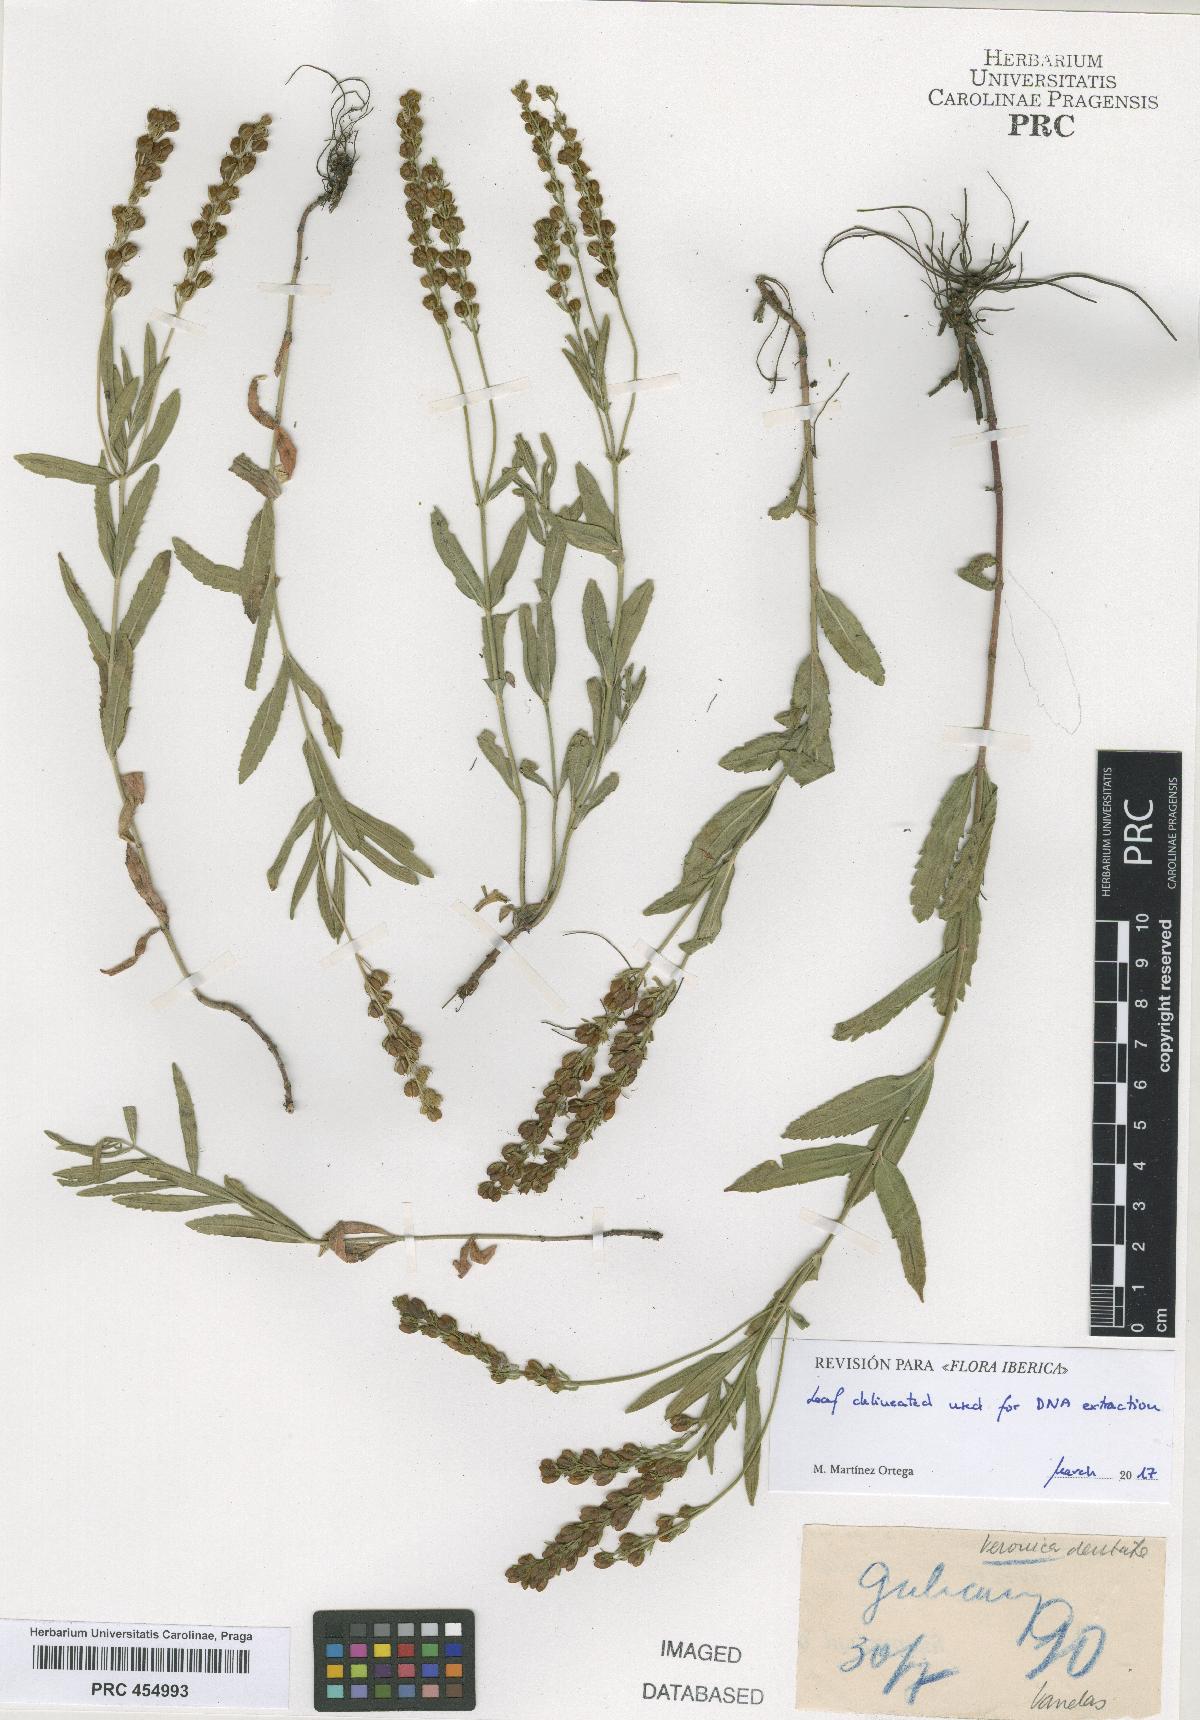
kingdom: Plantae
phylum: Tracheophyta
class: Magnoliopsida
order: Lamiales
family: Plantaginaceae
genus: Veronica
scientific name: Veronica austriaca
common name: Large speedwell
